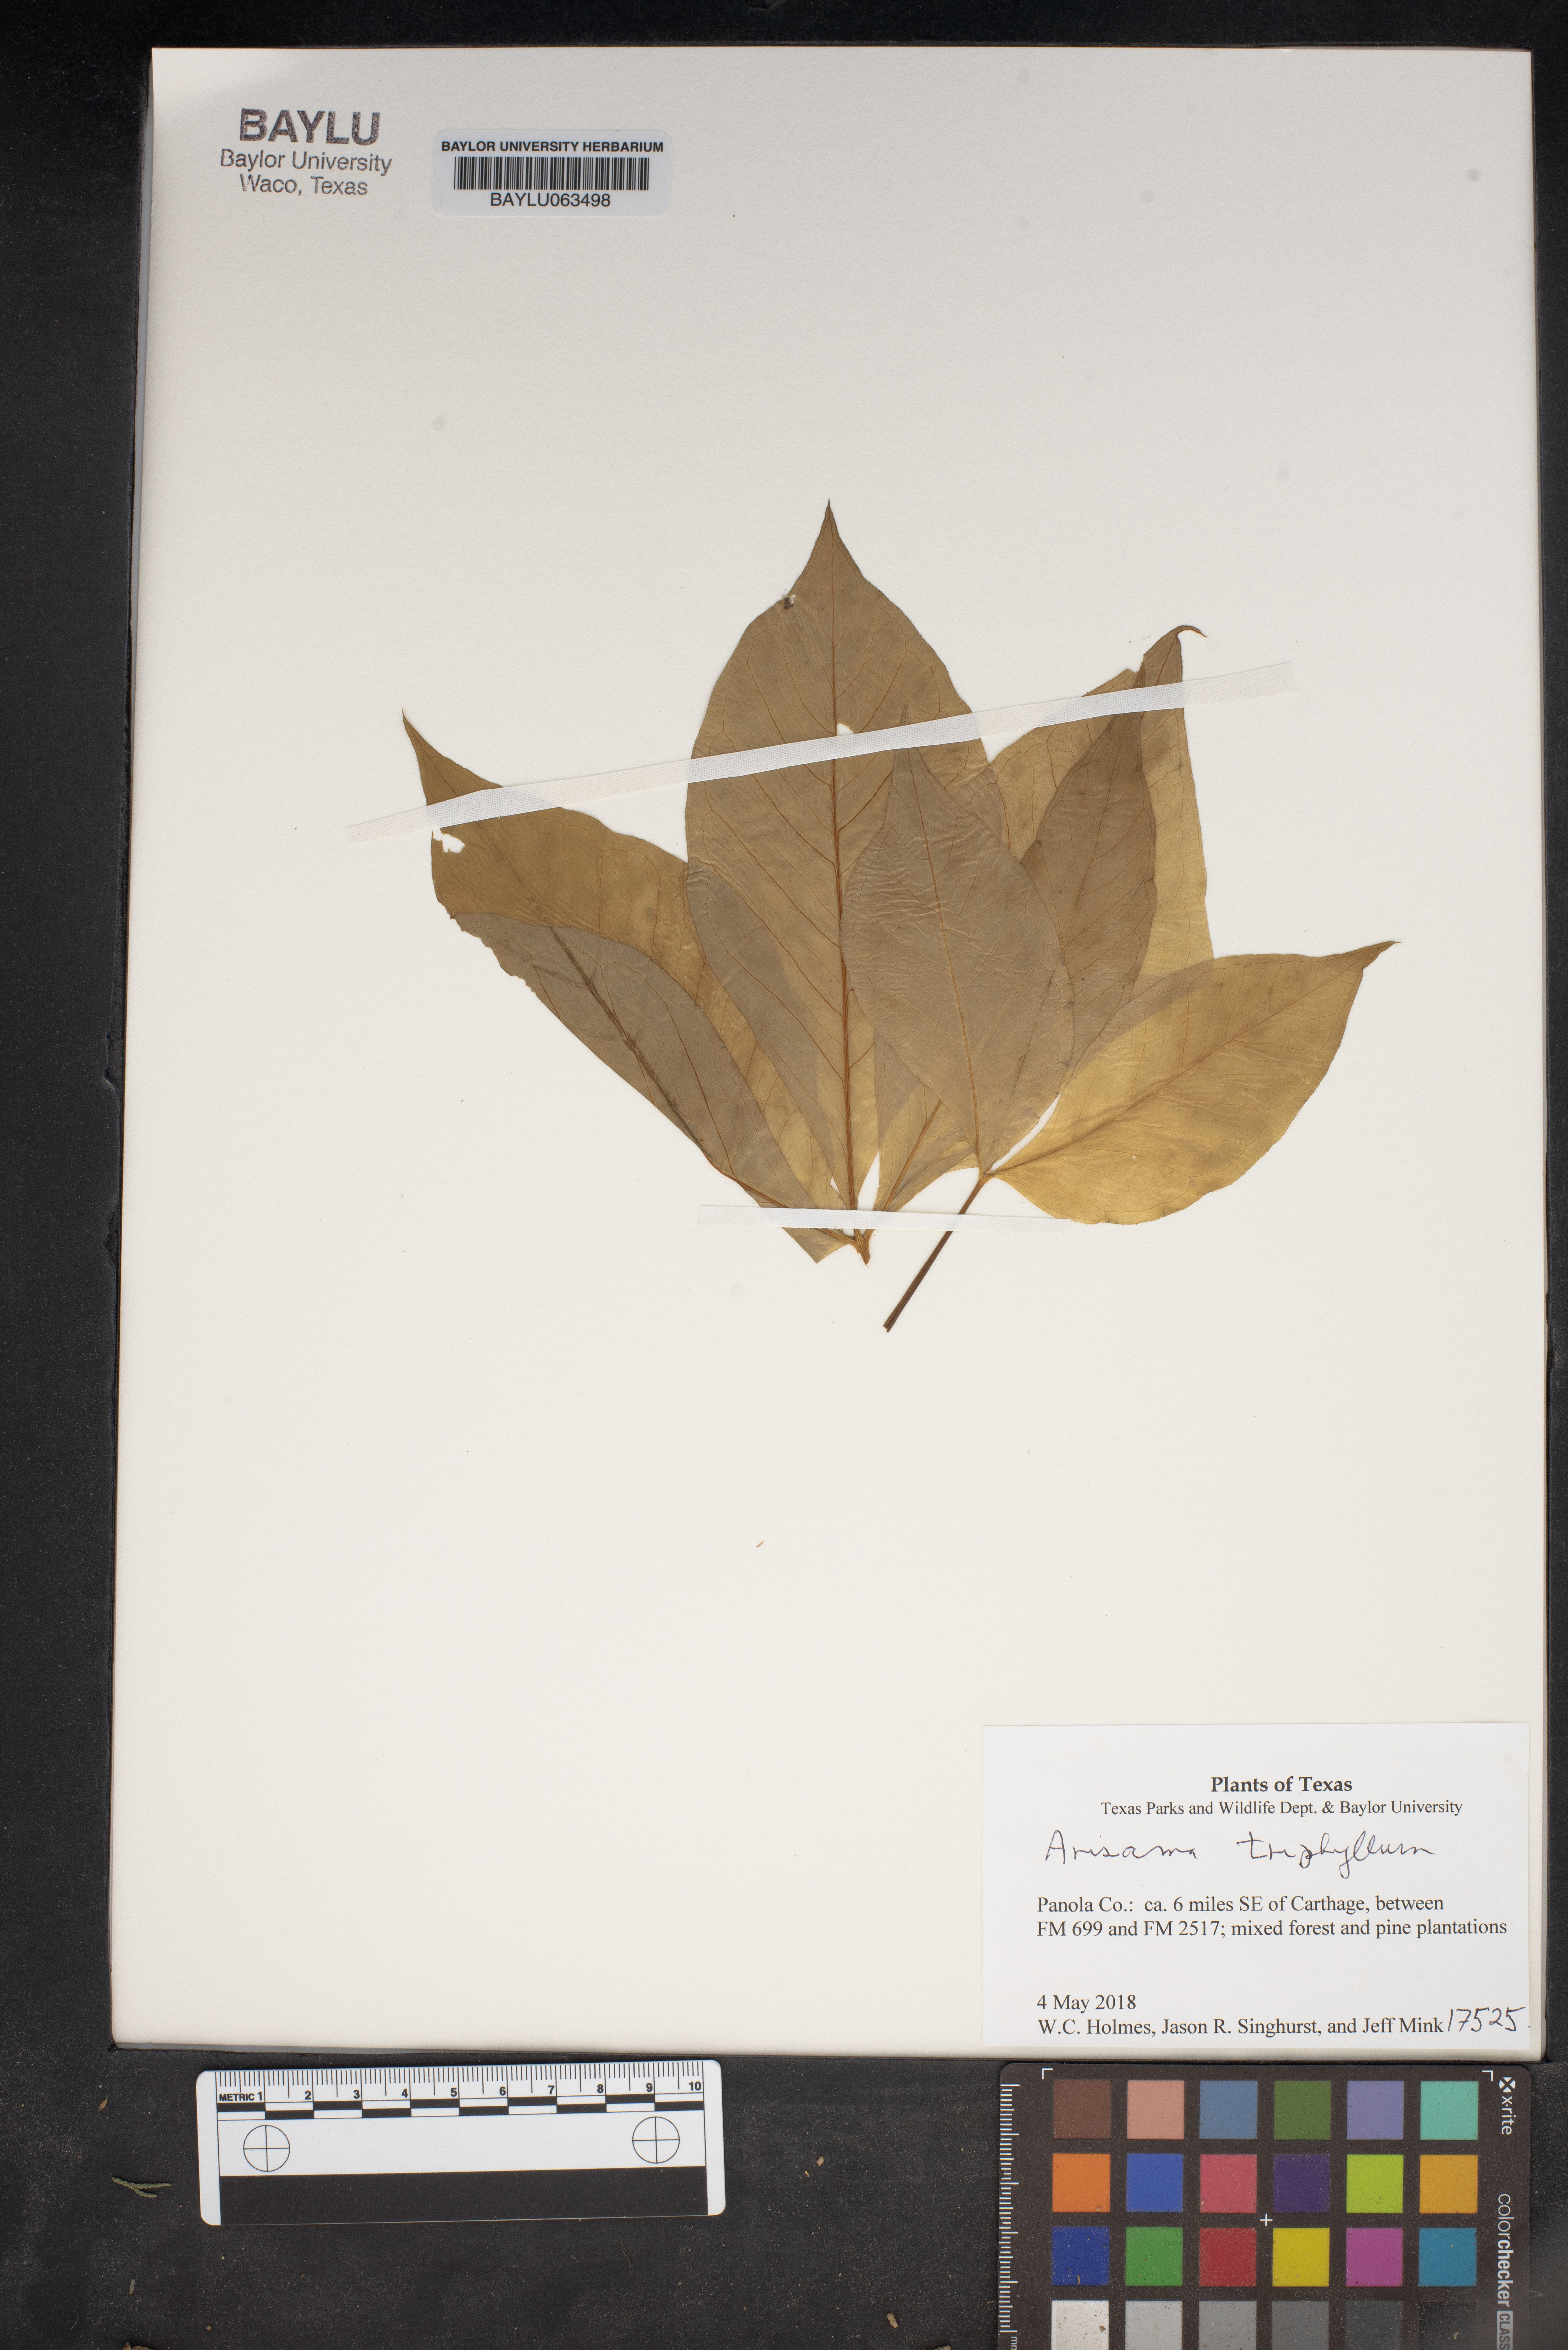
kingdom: Plantae
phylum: Tracheophyta
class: Liliopsida
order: Alismatales
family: Araceae
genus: Arisaema
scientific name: Arisaema triphyllum
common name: Jack-in-the-pulpit
